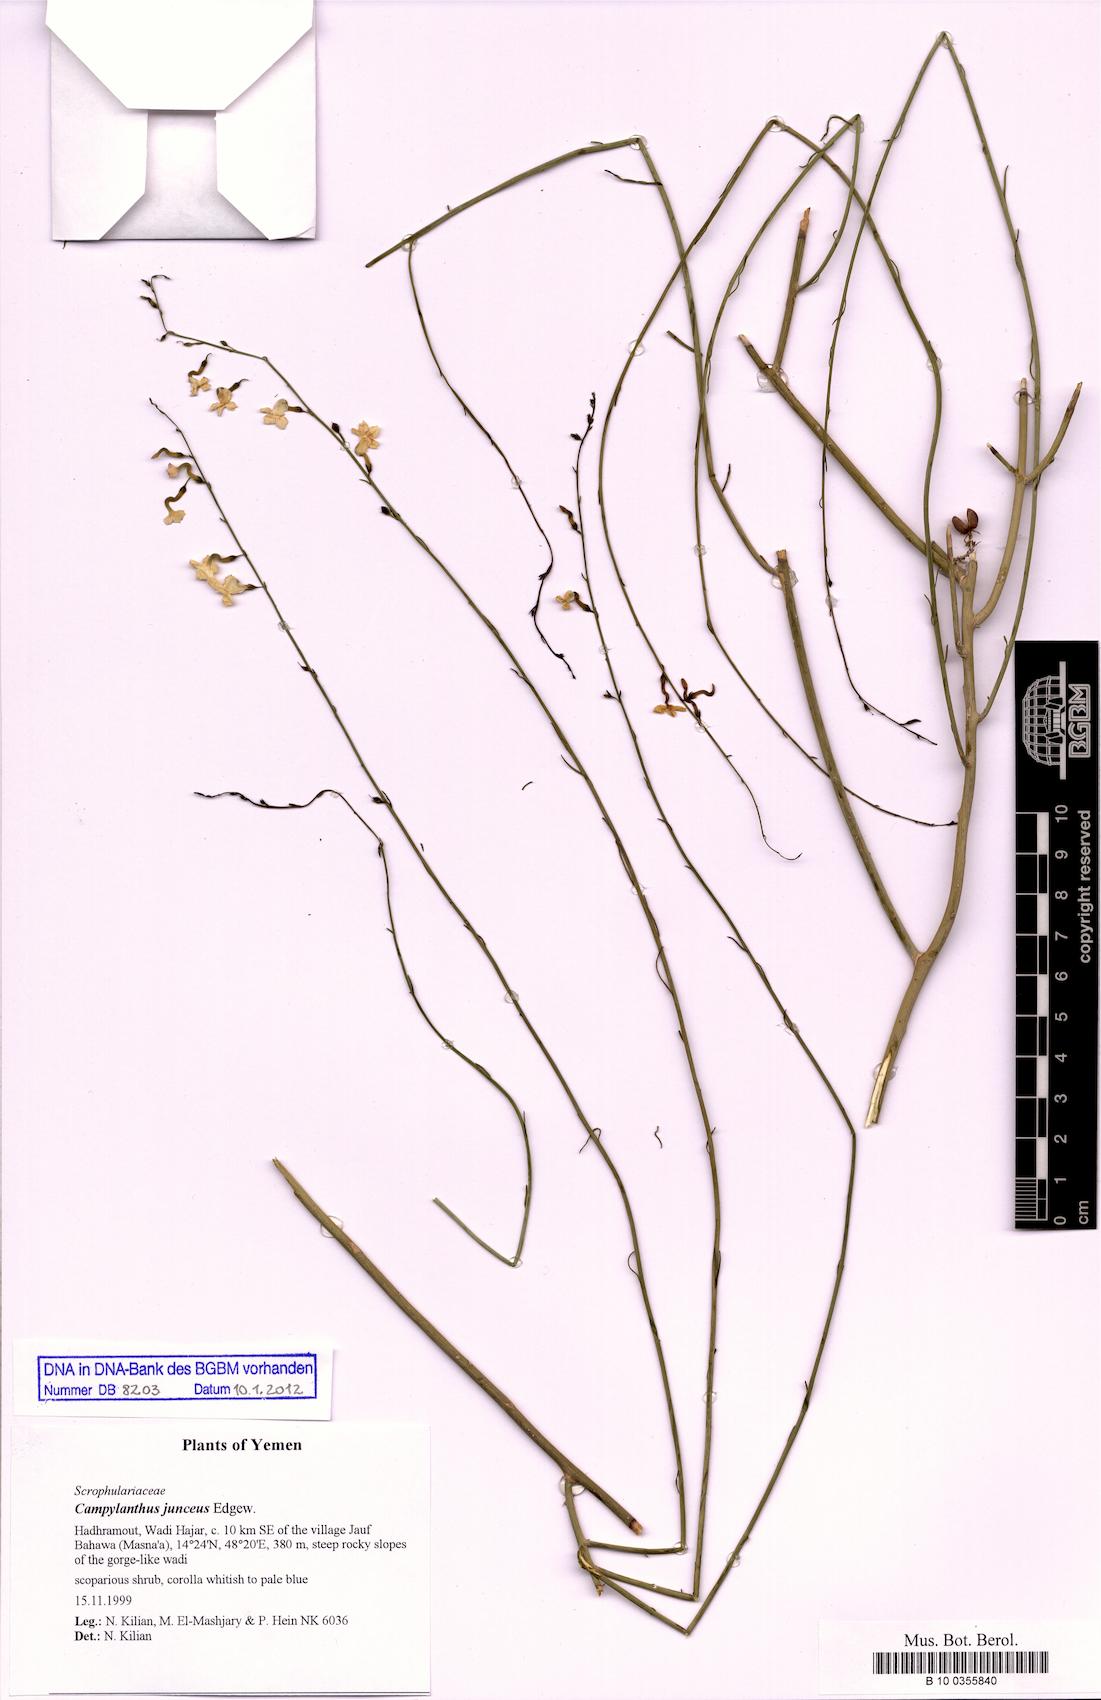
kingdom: Plantae
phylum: Tracheophyta
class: Magnoliopsida
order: Lamiales
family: Plantaginaceae
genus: Campylanthus
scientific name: Campylanthus junceus
